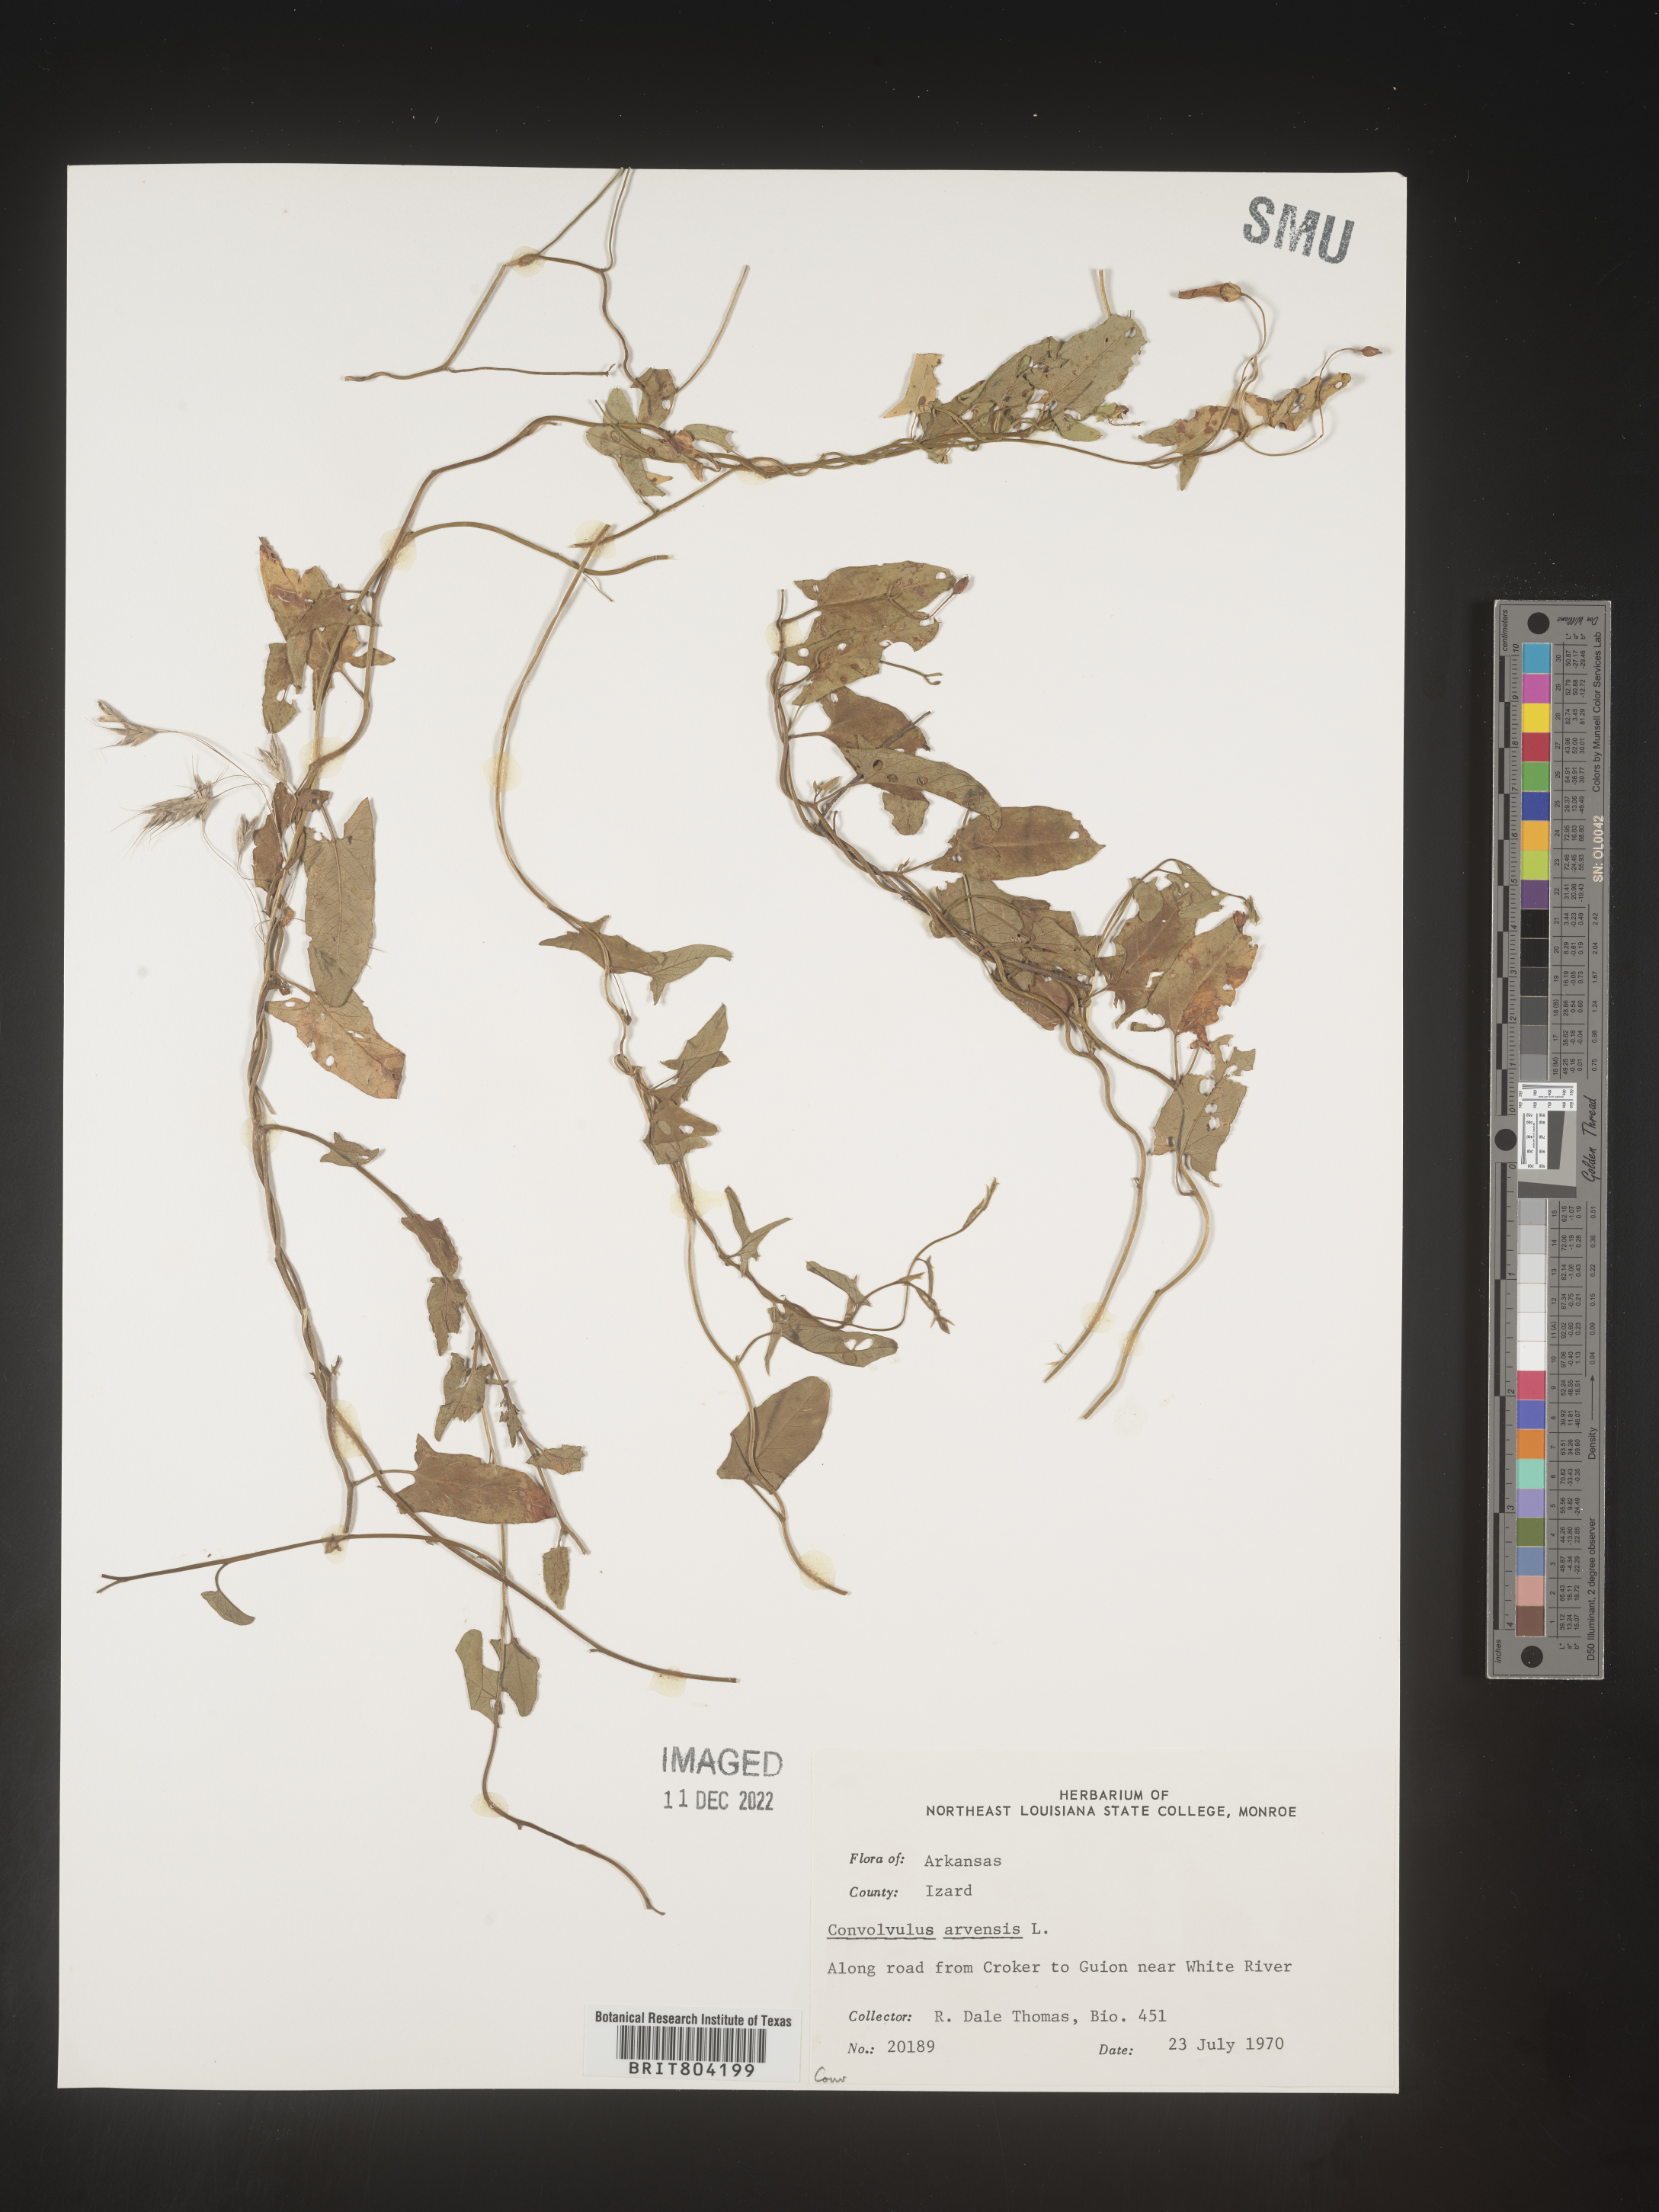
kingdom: Plantae
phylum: Tracheophyta
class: Magnoliopsida
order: Solanales
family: Convolvulaceae
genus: Convolvulus
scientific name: Convolvulus arvensis
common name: Field bindweed
